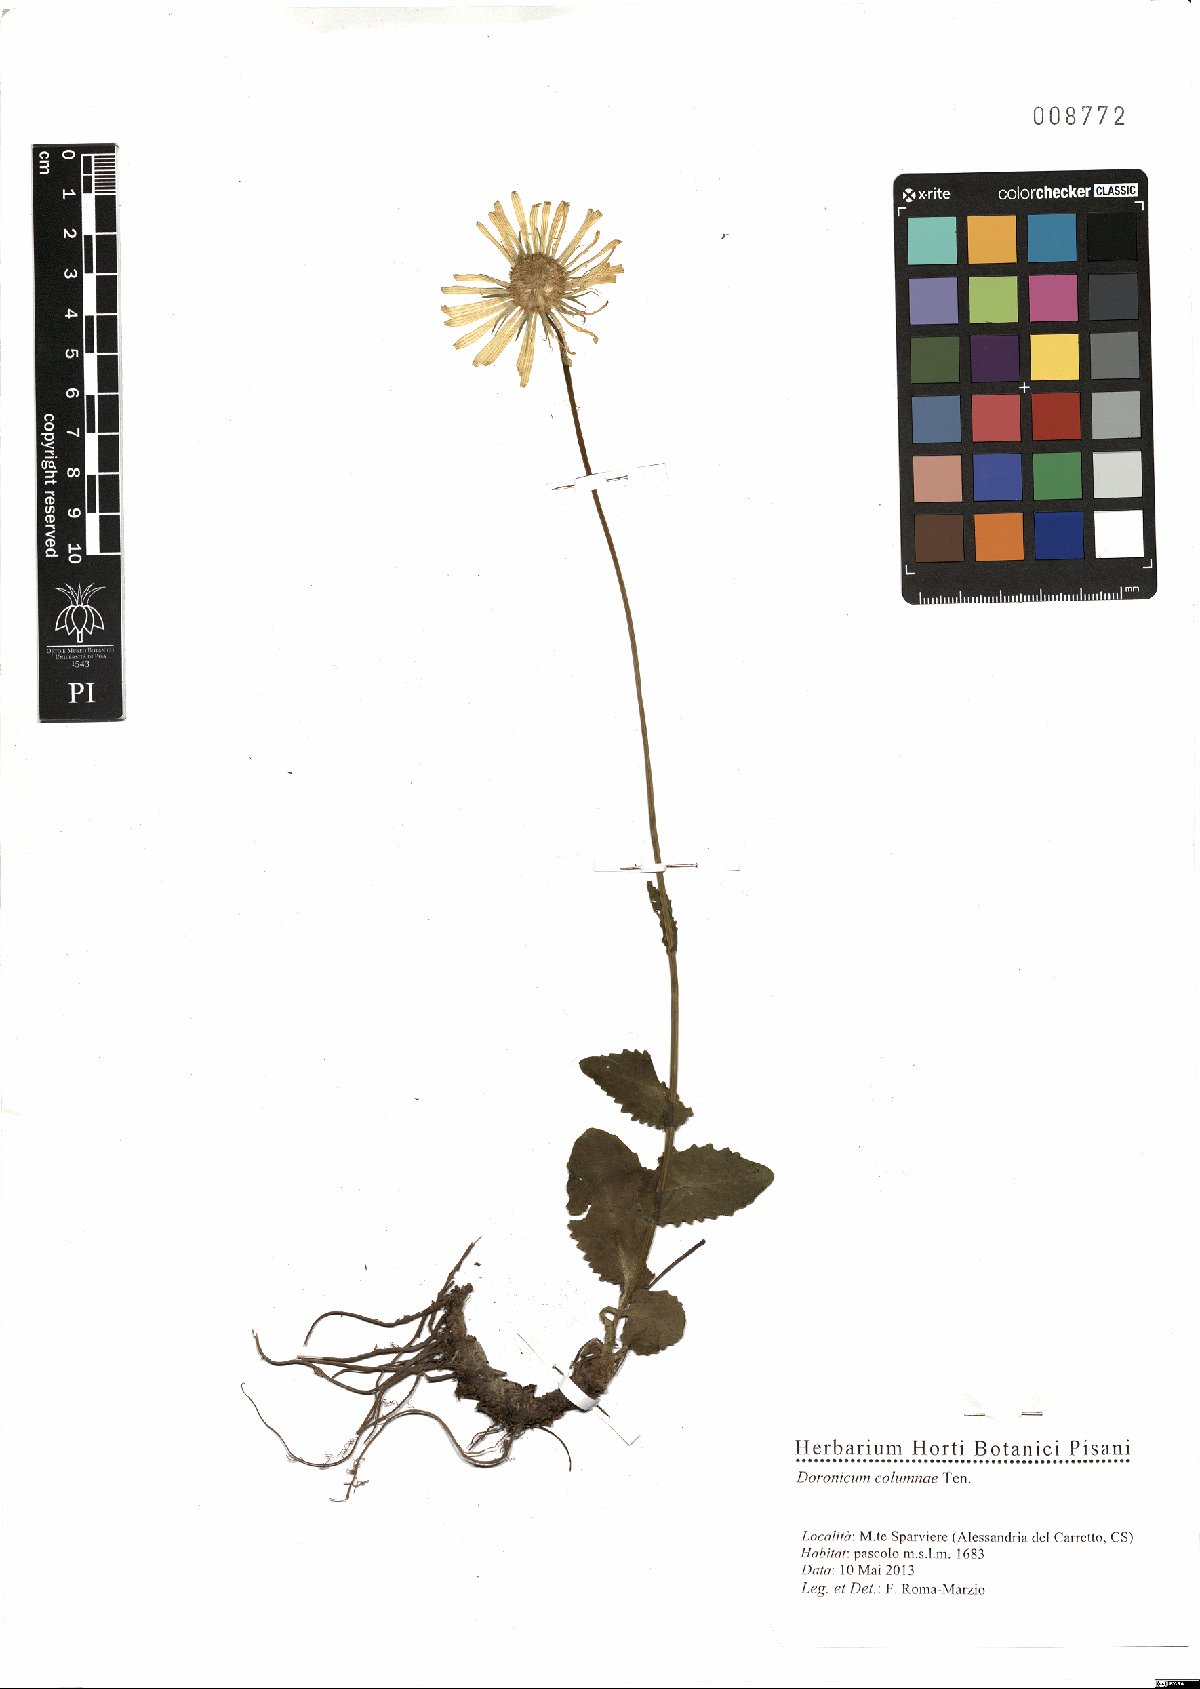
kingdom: Plantae
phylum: Tracheophyta
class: Magnoliopsida
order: Asterales
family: Asteraceae
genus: Doronicum
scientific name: Doronicum columnae
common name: Eastern leopard's-bane
